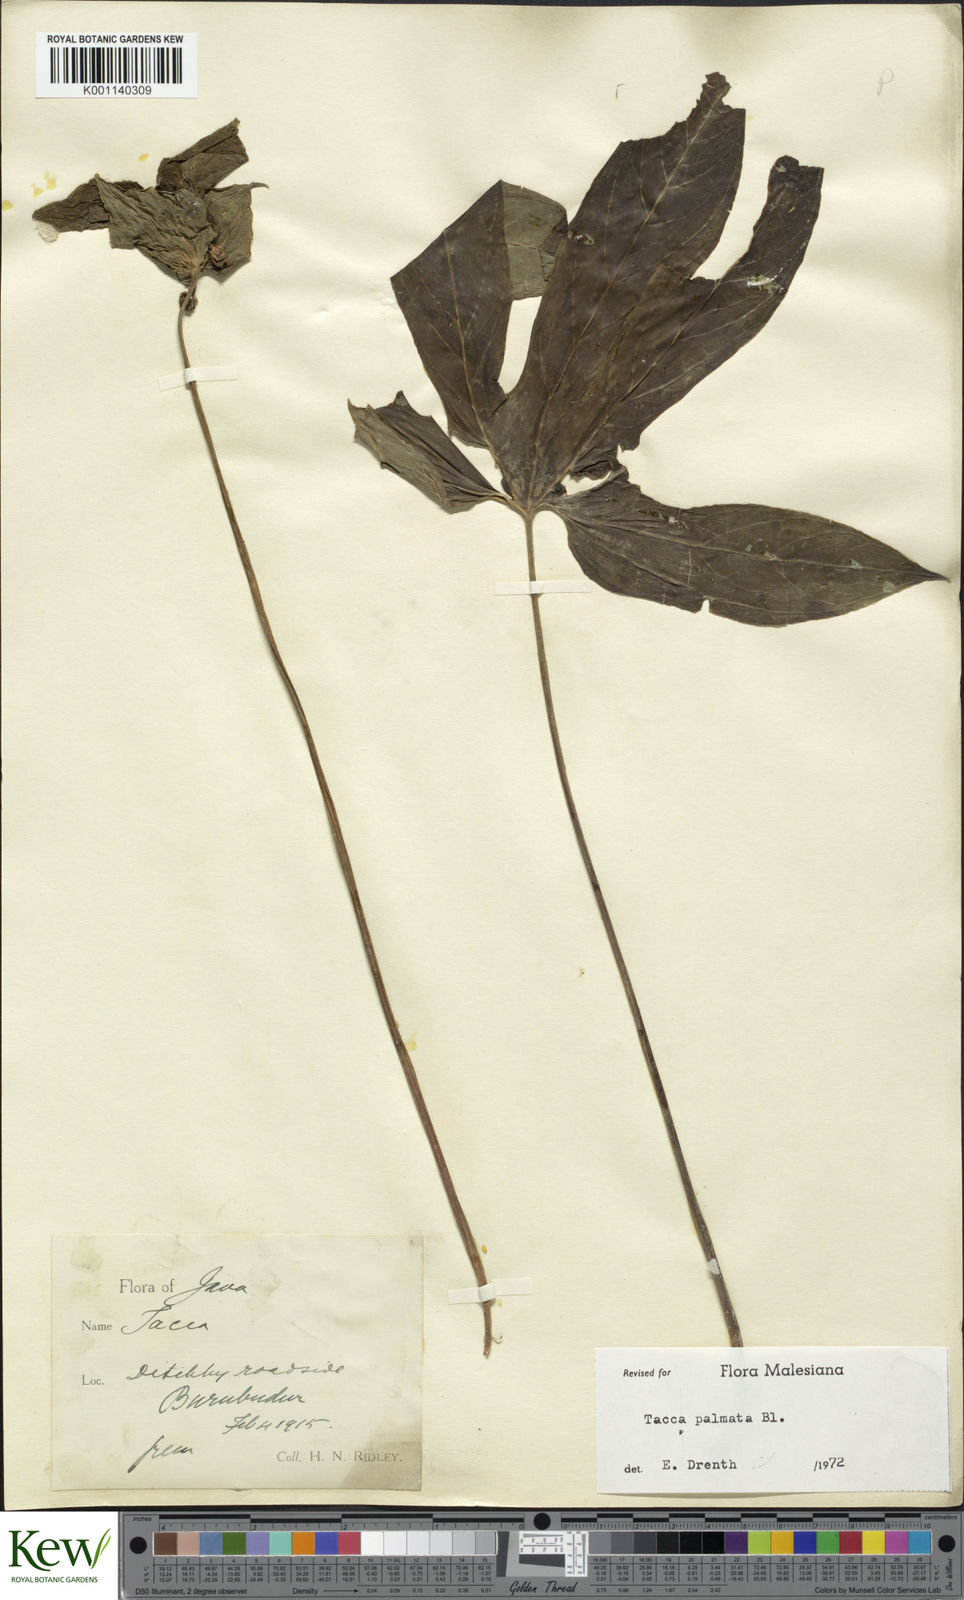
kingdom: Plantae
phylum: Tracheophyta
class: Liliopsida
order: Dioscoreales
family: Dioscoreaceae
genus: Tacca
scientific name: Tacca palmata
